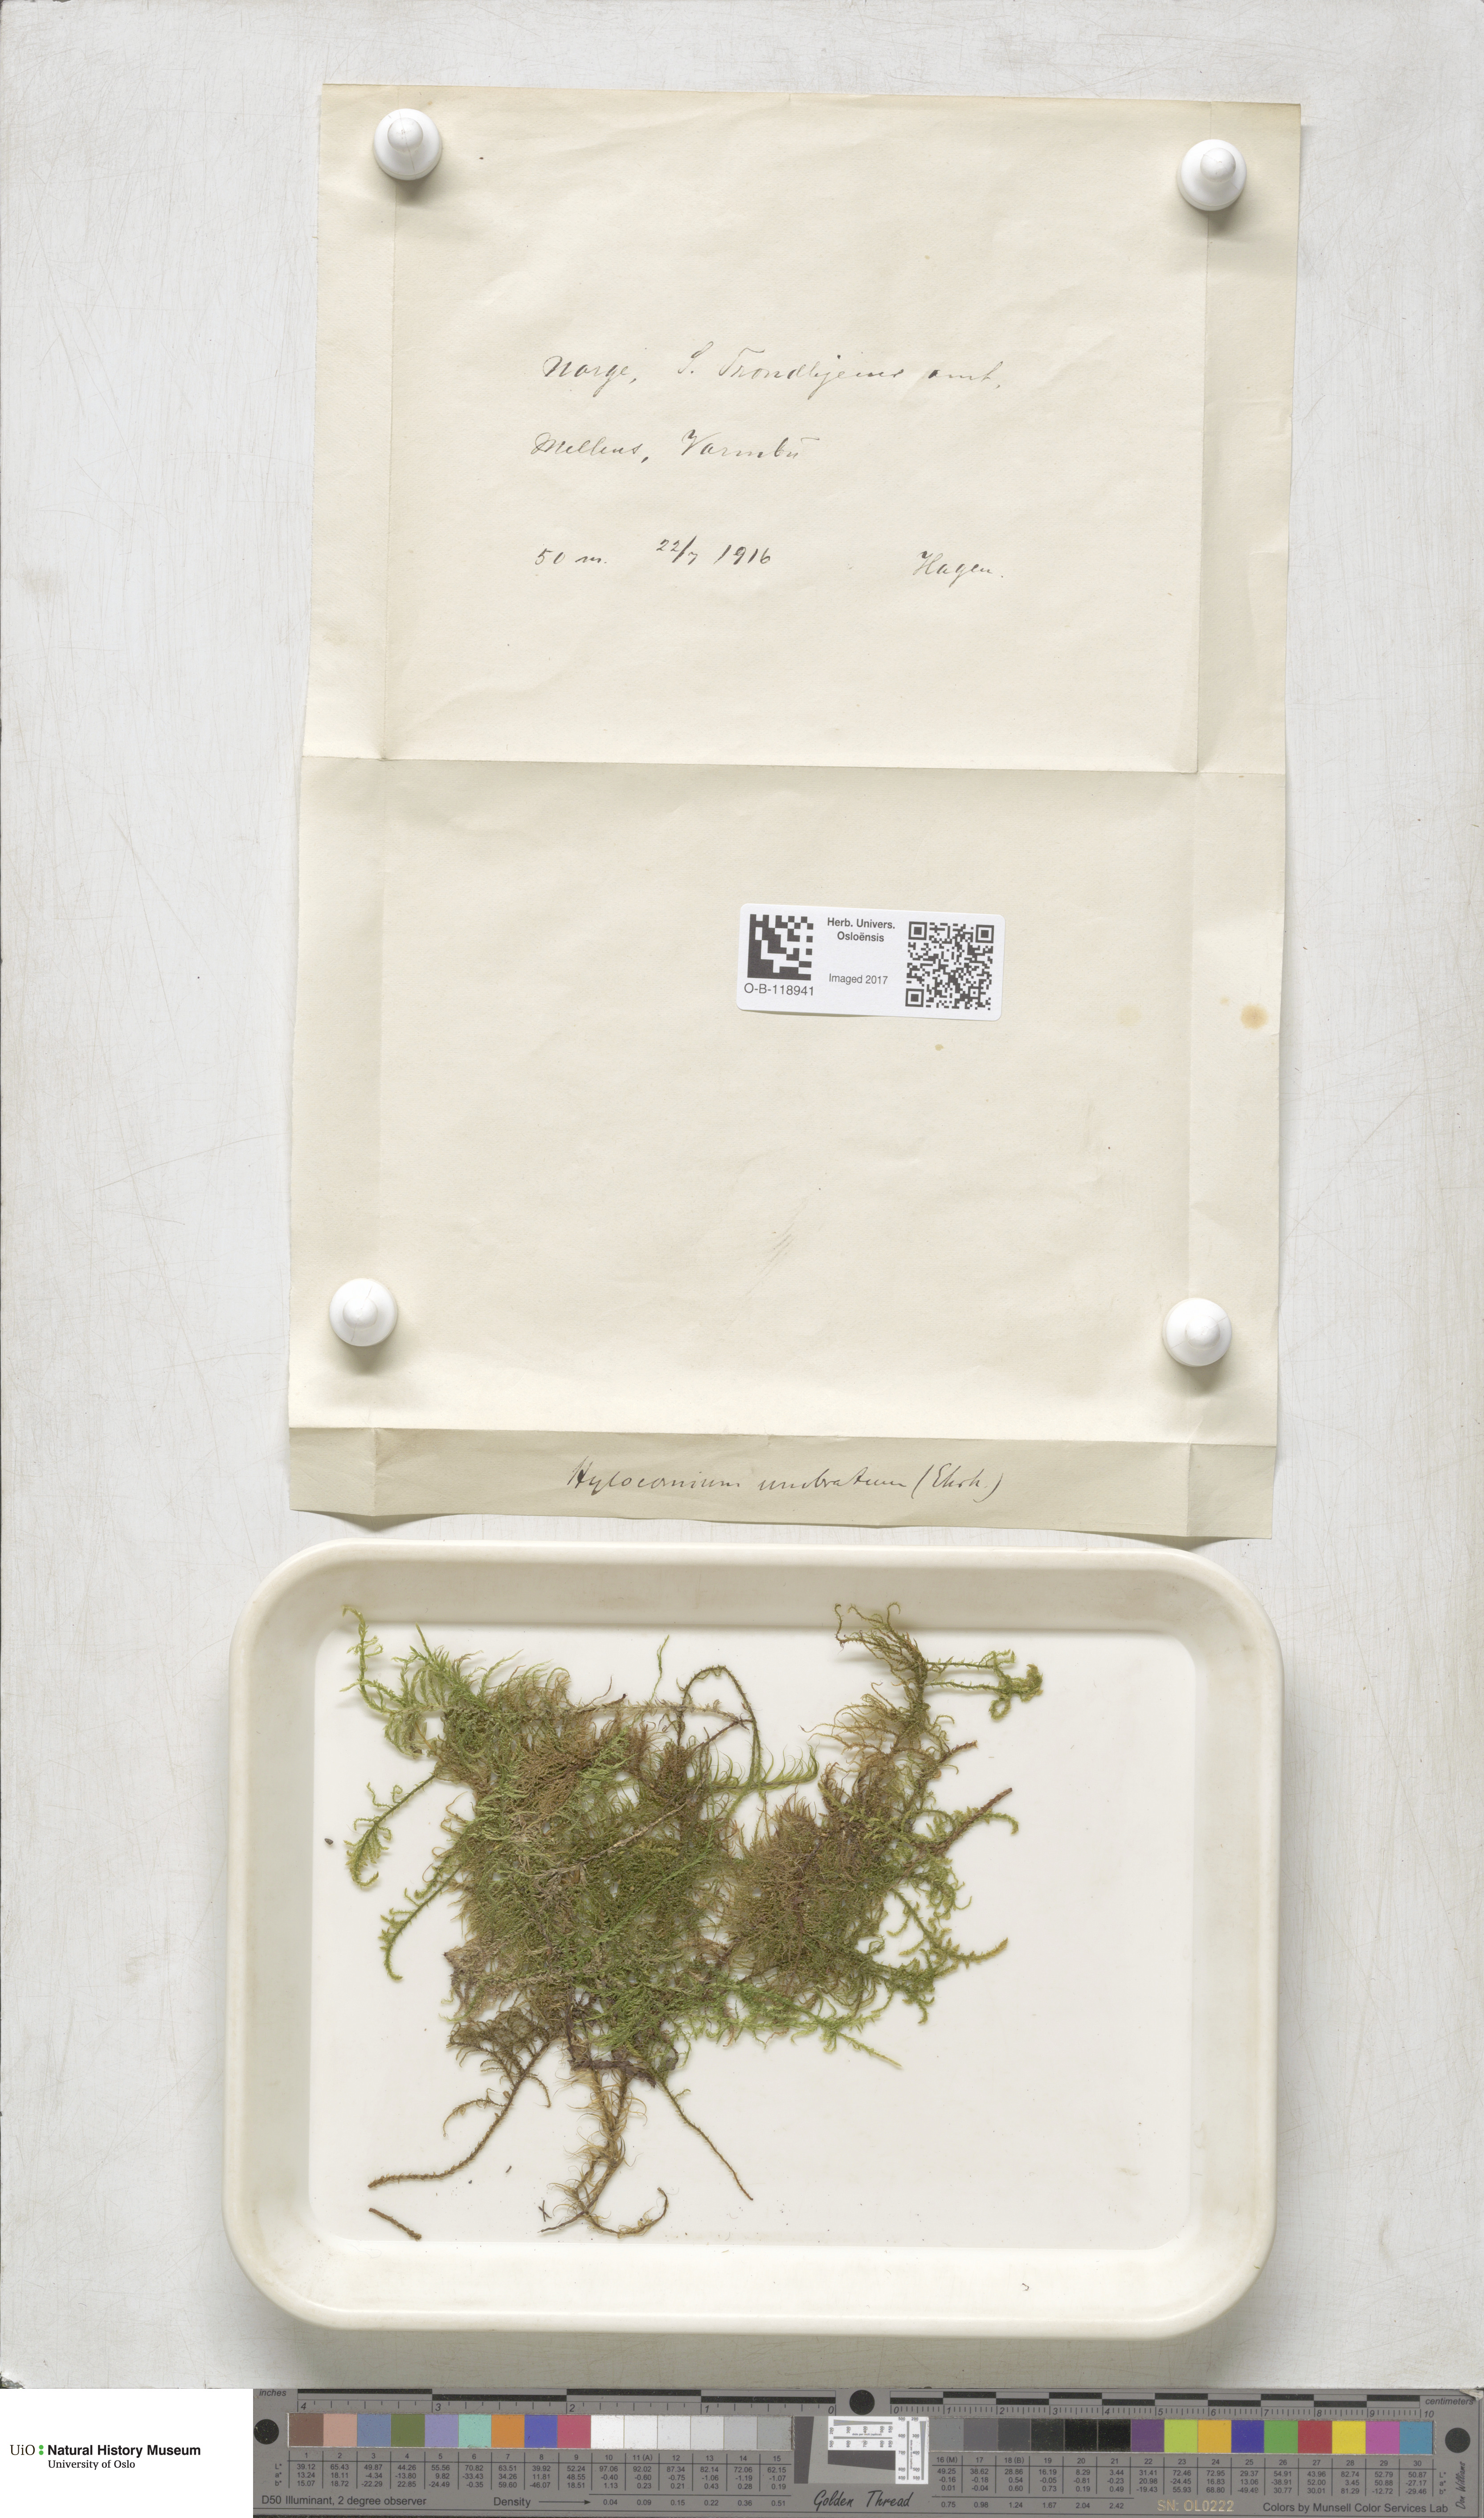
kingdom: Plantae
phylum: Bryophyta
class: Bryopsida
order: Hypnales
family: Hylocomiaceae
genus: Hylocomiastrum
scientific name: Hylocomiastrum umbratum
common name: Shaded woods moss
